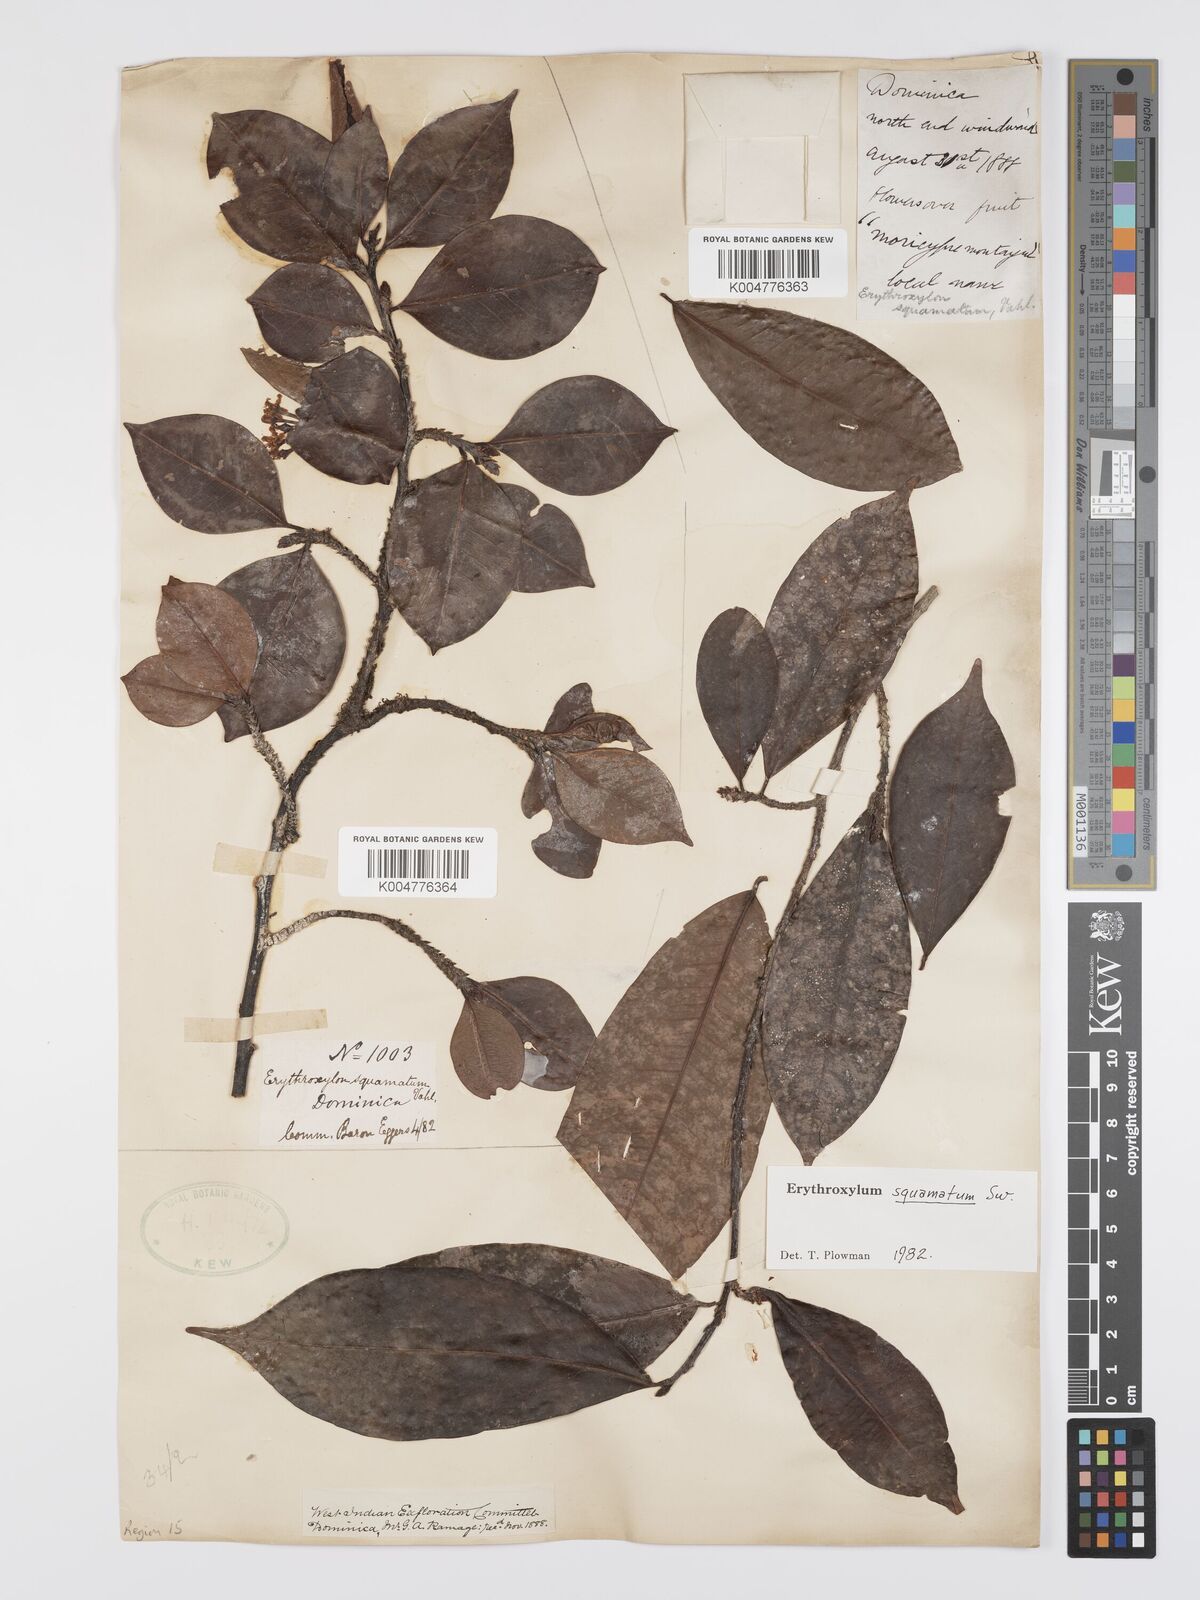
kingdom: Plantae
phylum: Tracheophyta
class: Magnoliopsida
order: Malpighiales
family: Erythroxylaceae
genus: Erythroxylum
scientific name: Erythroxylum squamatum
